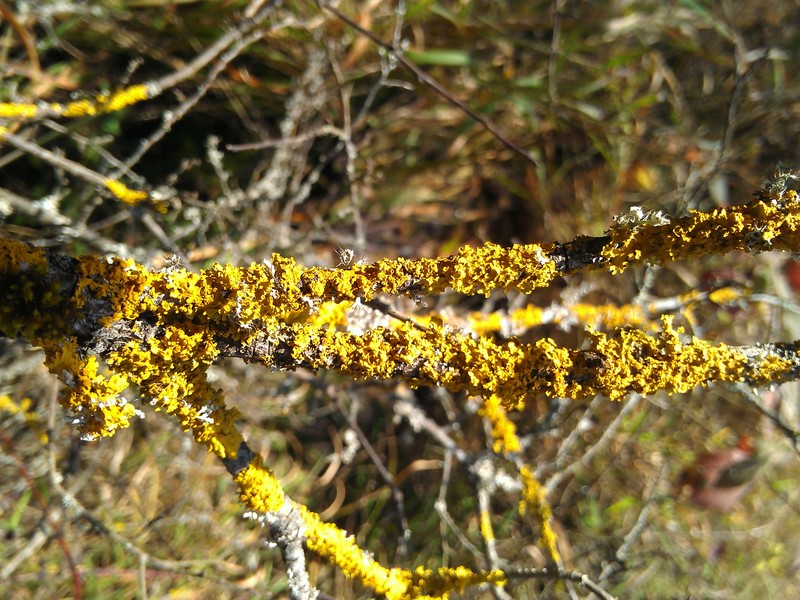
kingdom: Fungi
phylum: Ascomycota
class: Lecanoromycetes
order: Teloschistales
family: Teloschistaceae
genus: Xanthoria
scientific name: Xanthoria parietina
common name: Common orange lichen
